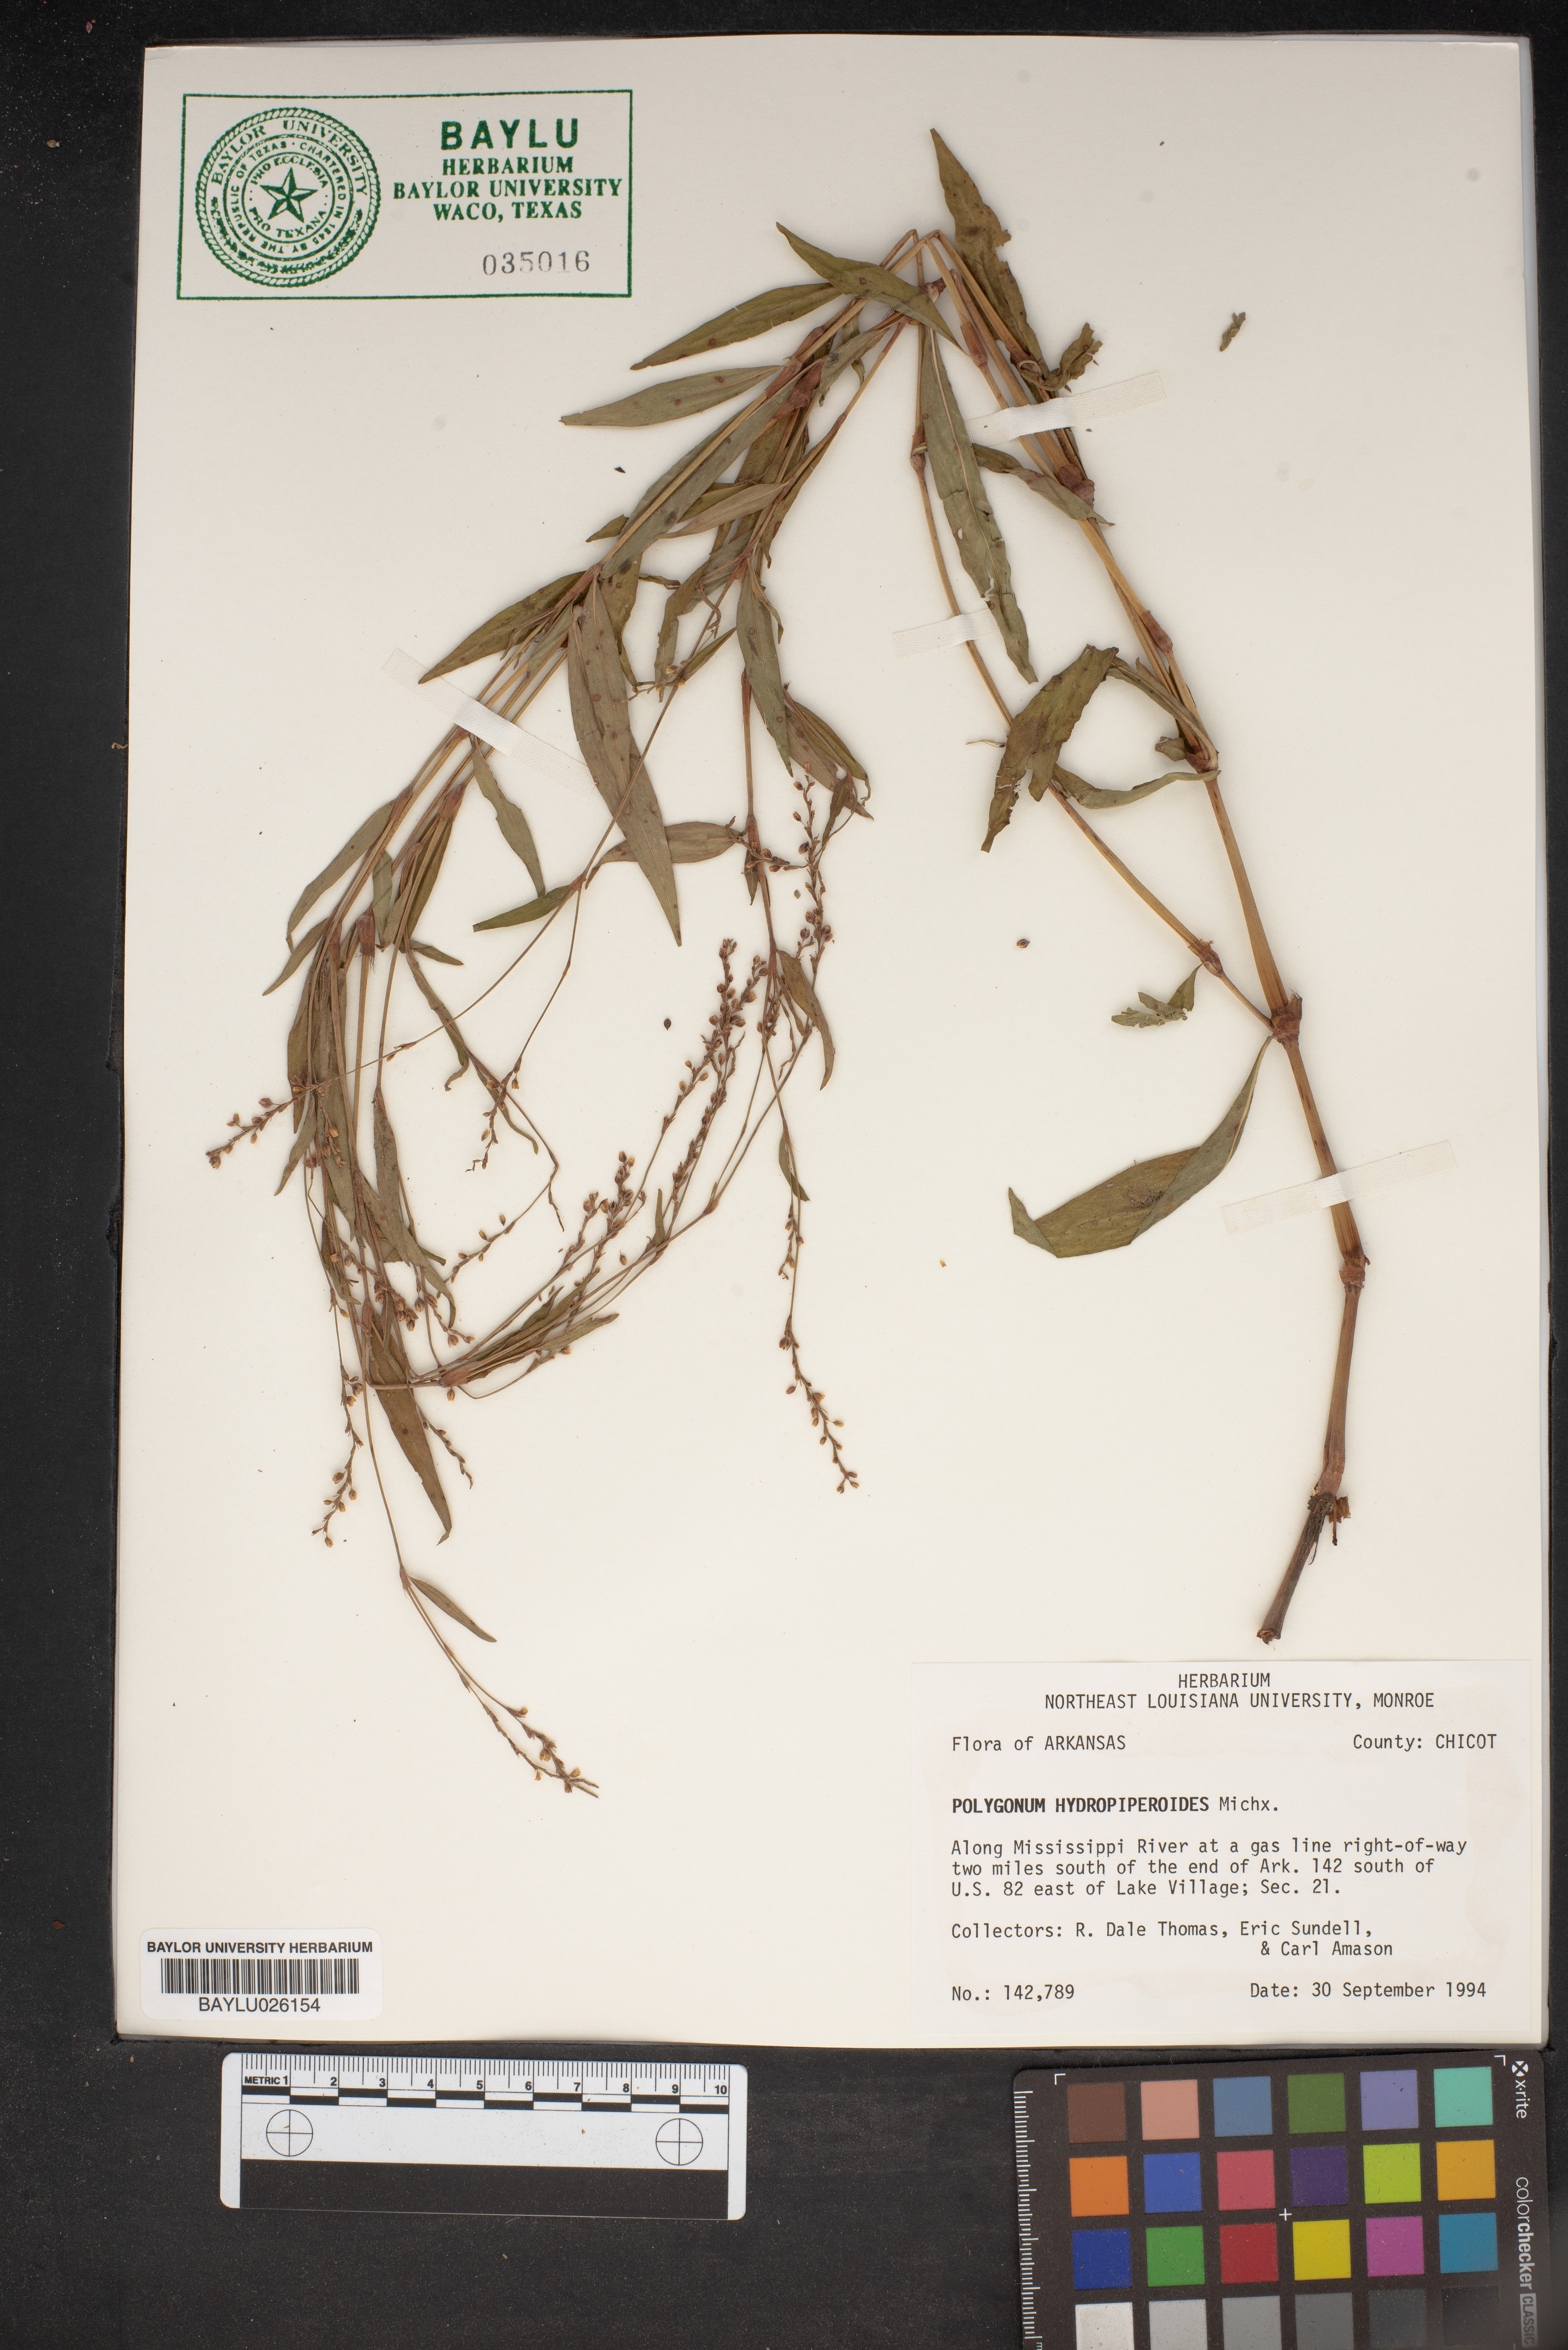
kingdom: Plantae
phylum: Tracheophyta
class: Magnoliopsida
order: Caryophyllales
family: Polygonaceae
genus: Persicaria
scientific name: Persicaria hydropiperoides
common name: Swamp smartweed
